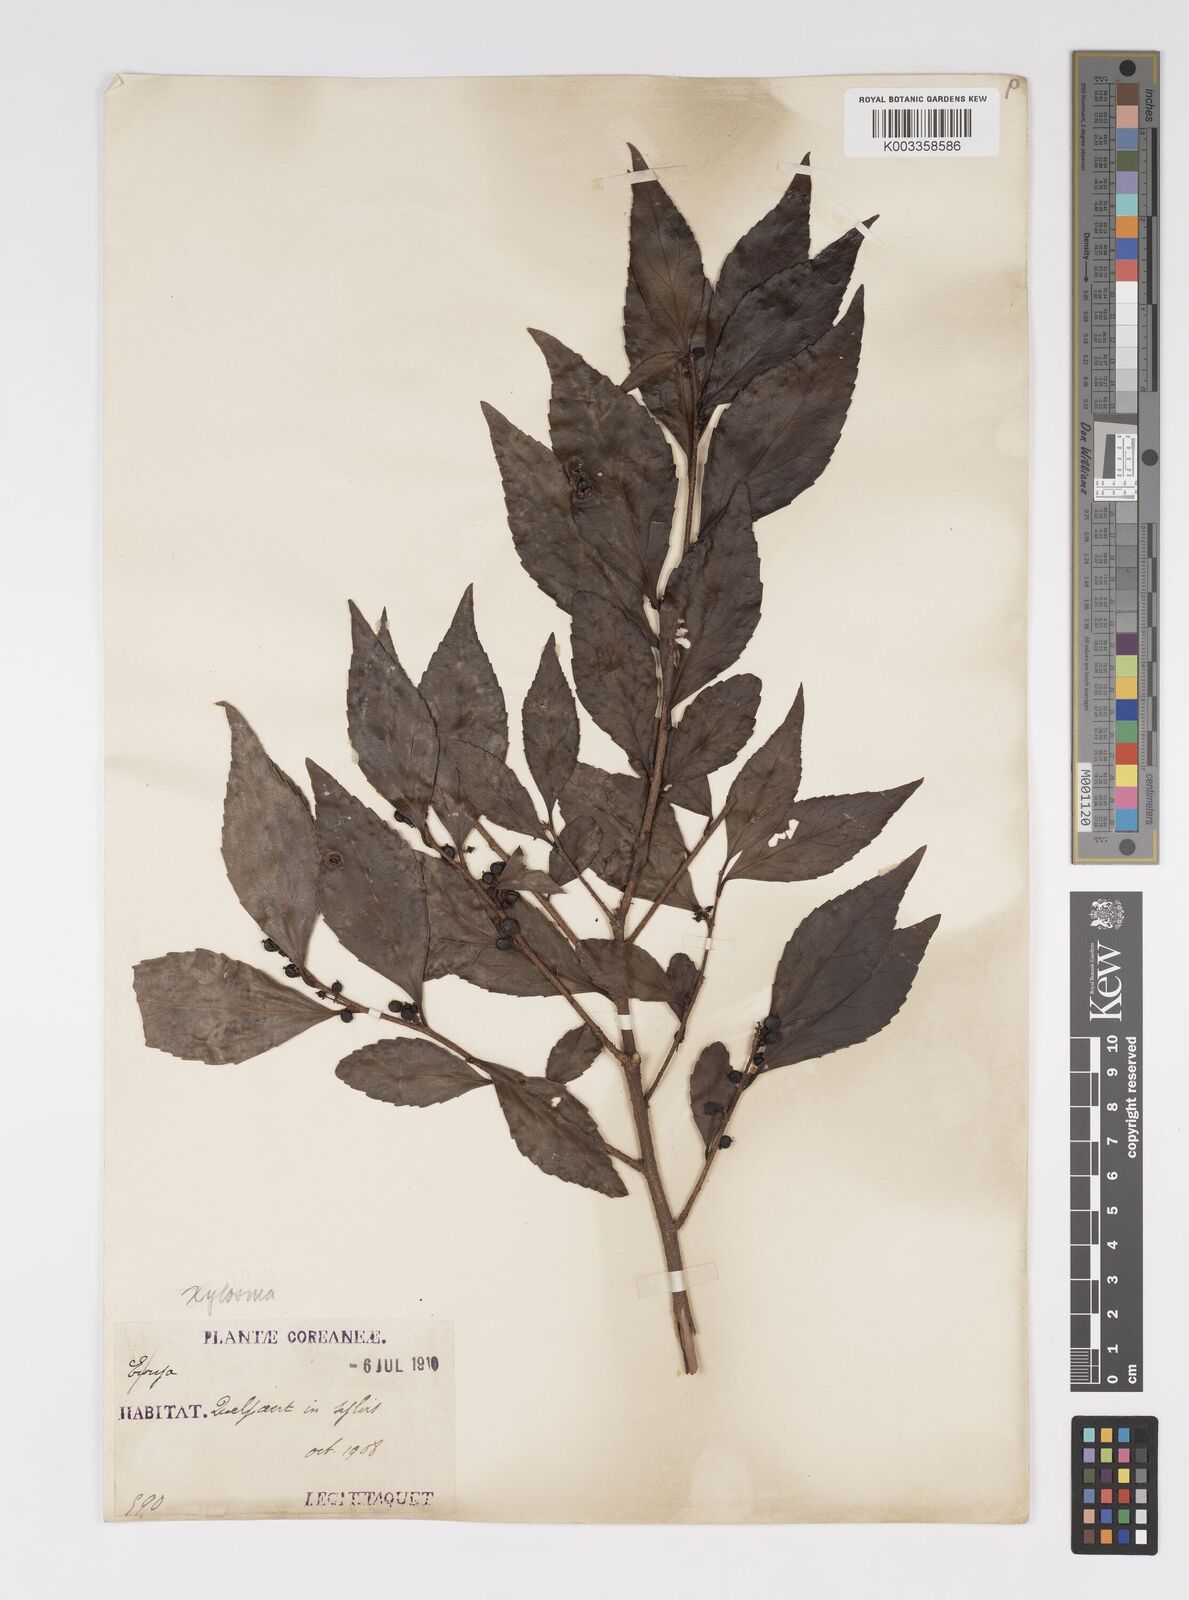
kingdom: Plantae
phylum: Tracheophyta
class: Magnoliopsida
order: Malpighiales
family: Salicaceae
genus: Xylosma
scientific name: Xylosma
